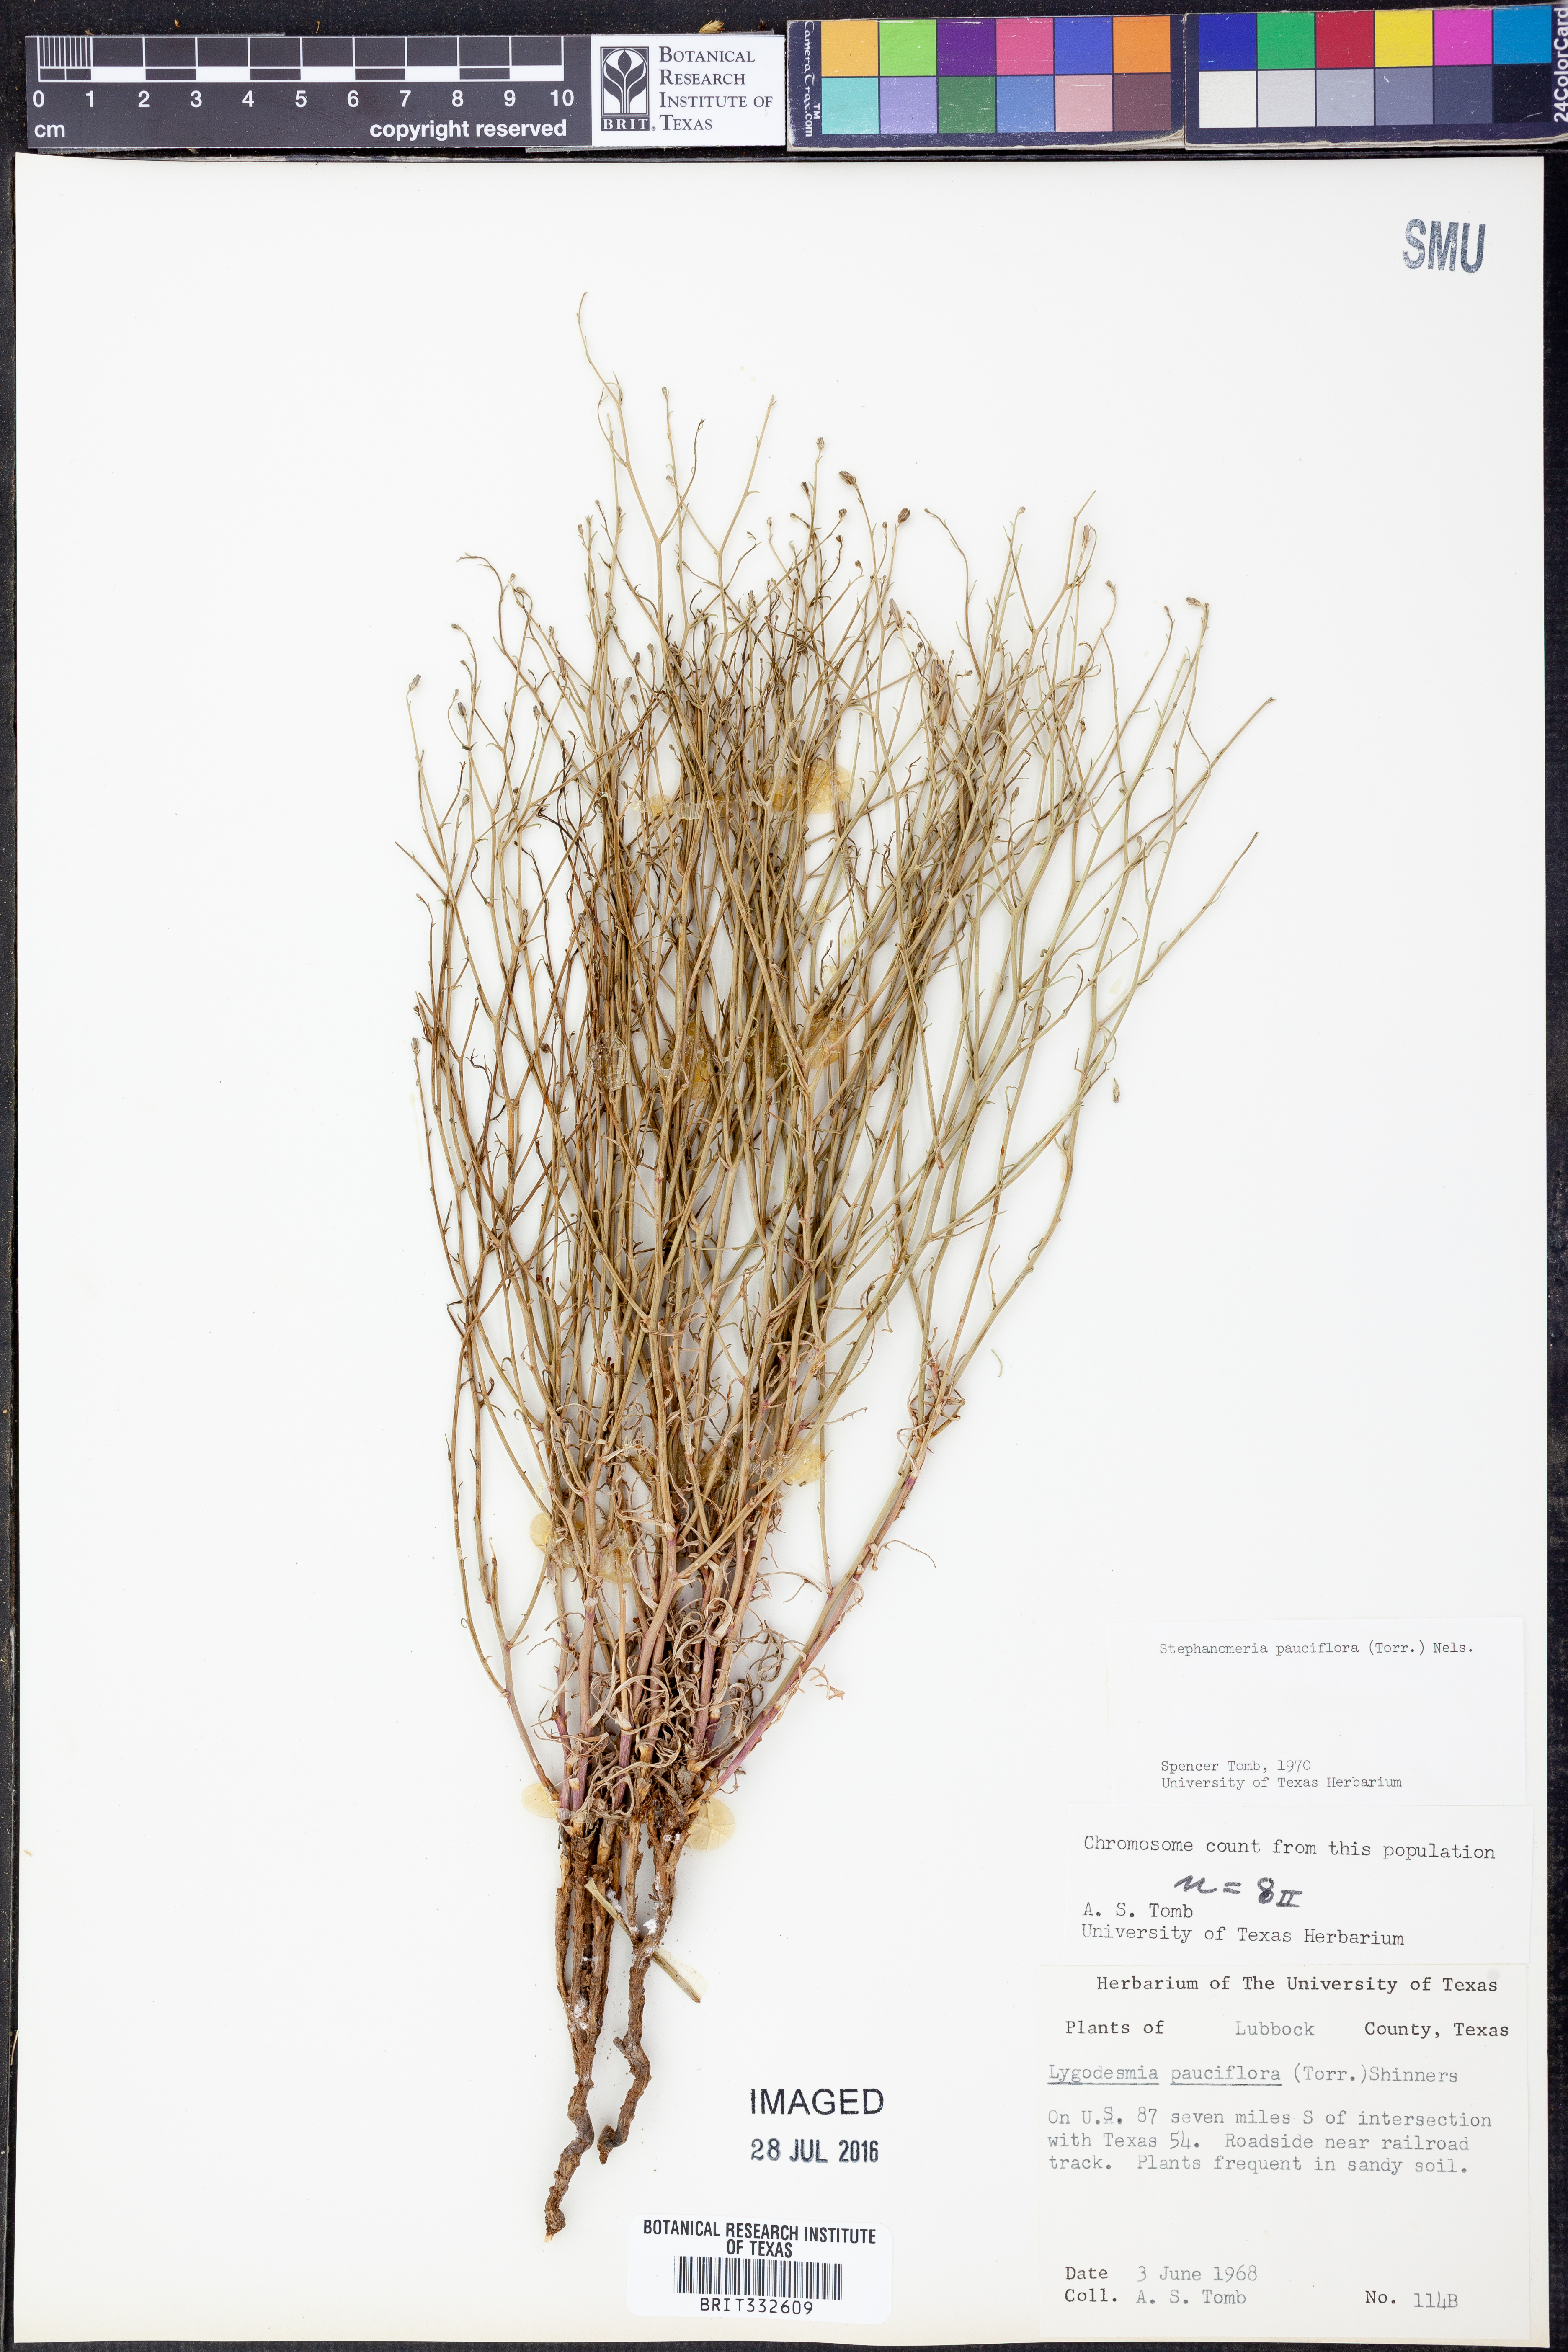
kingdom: Plantae
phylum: Tracheophyta
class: Magnoliopsida
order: Asterales
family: Asteraceae
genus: Stephanomeria
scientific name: Stephanomeria pauciflora
